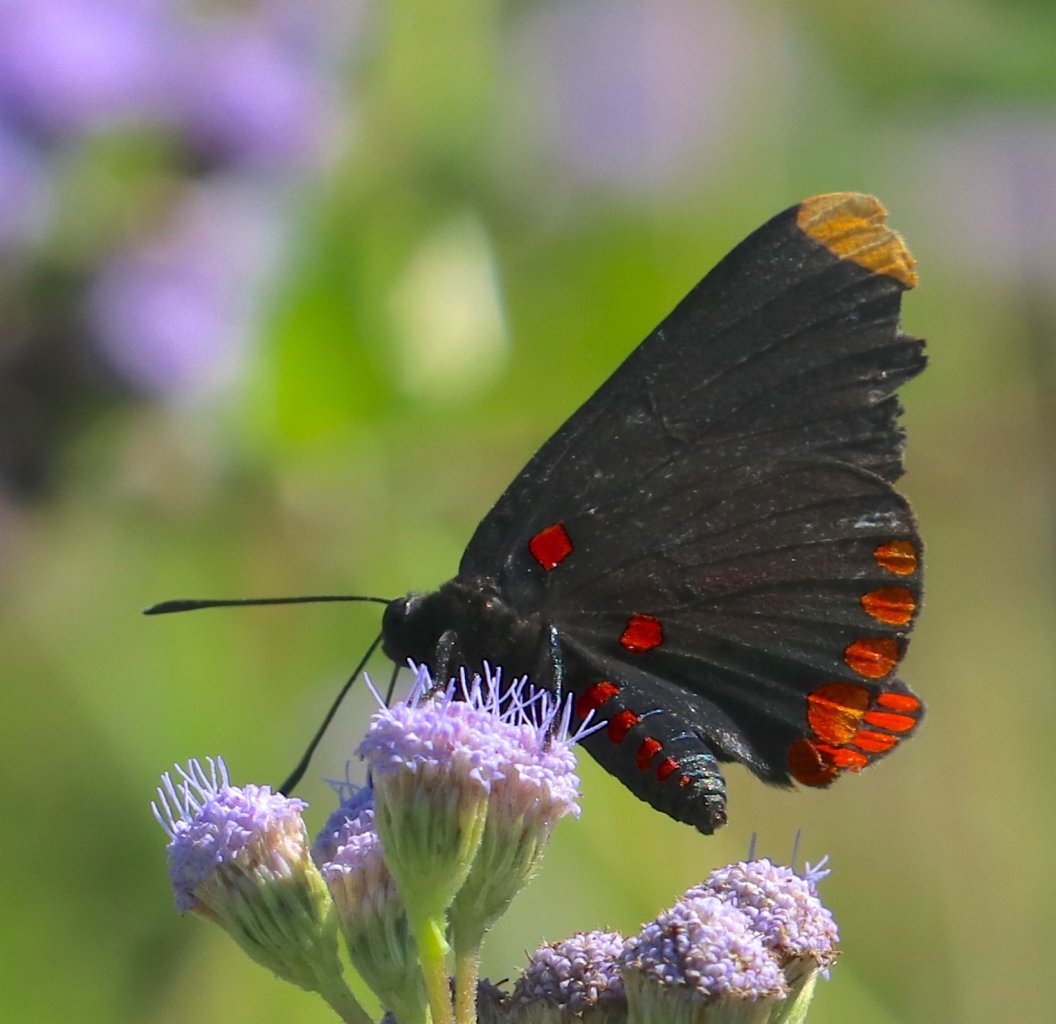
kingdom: Animalia
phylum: Arthropoda
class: Insecta
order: Lepidoptera
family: Lycaenidae
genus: Melanis
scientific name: Melanis pixe
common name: Red-bordered Pixie
